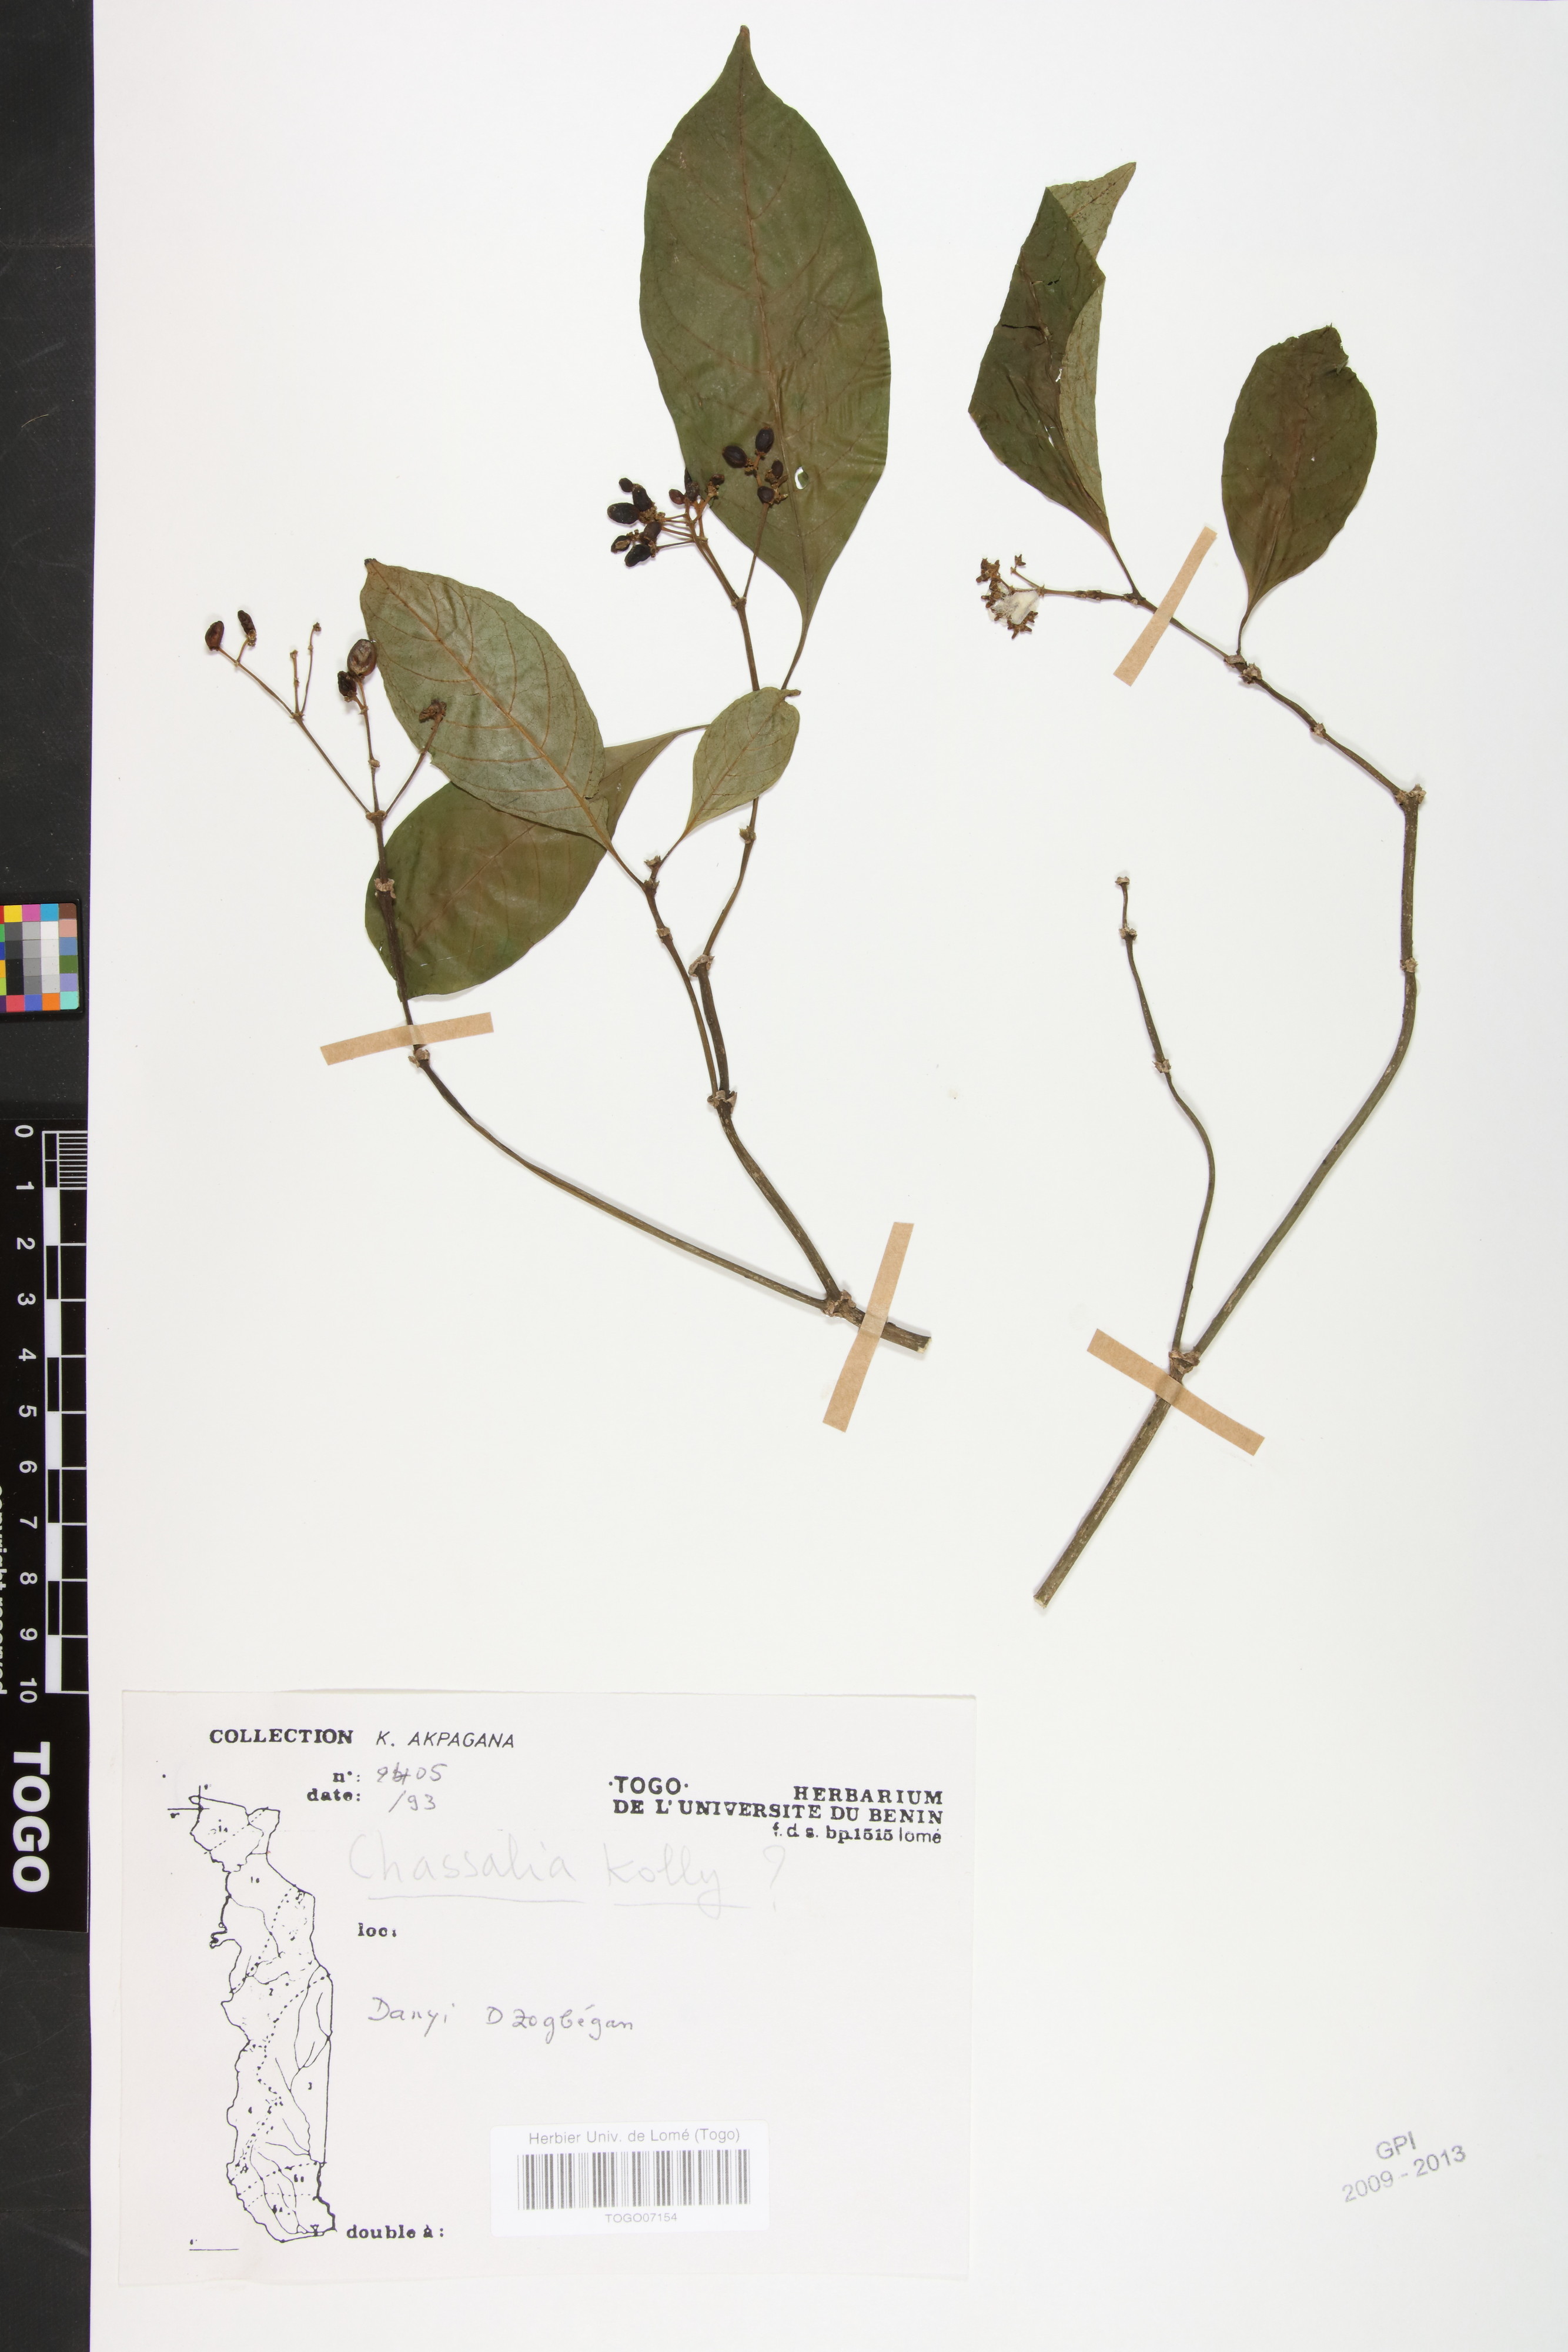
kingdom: Plantae
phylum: Tracheophyta
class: Magnoliopsida
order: Gentianales
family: Rubiaceae
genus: Chassalia
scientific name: Chassalia kolly
